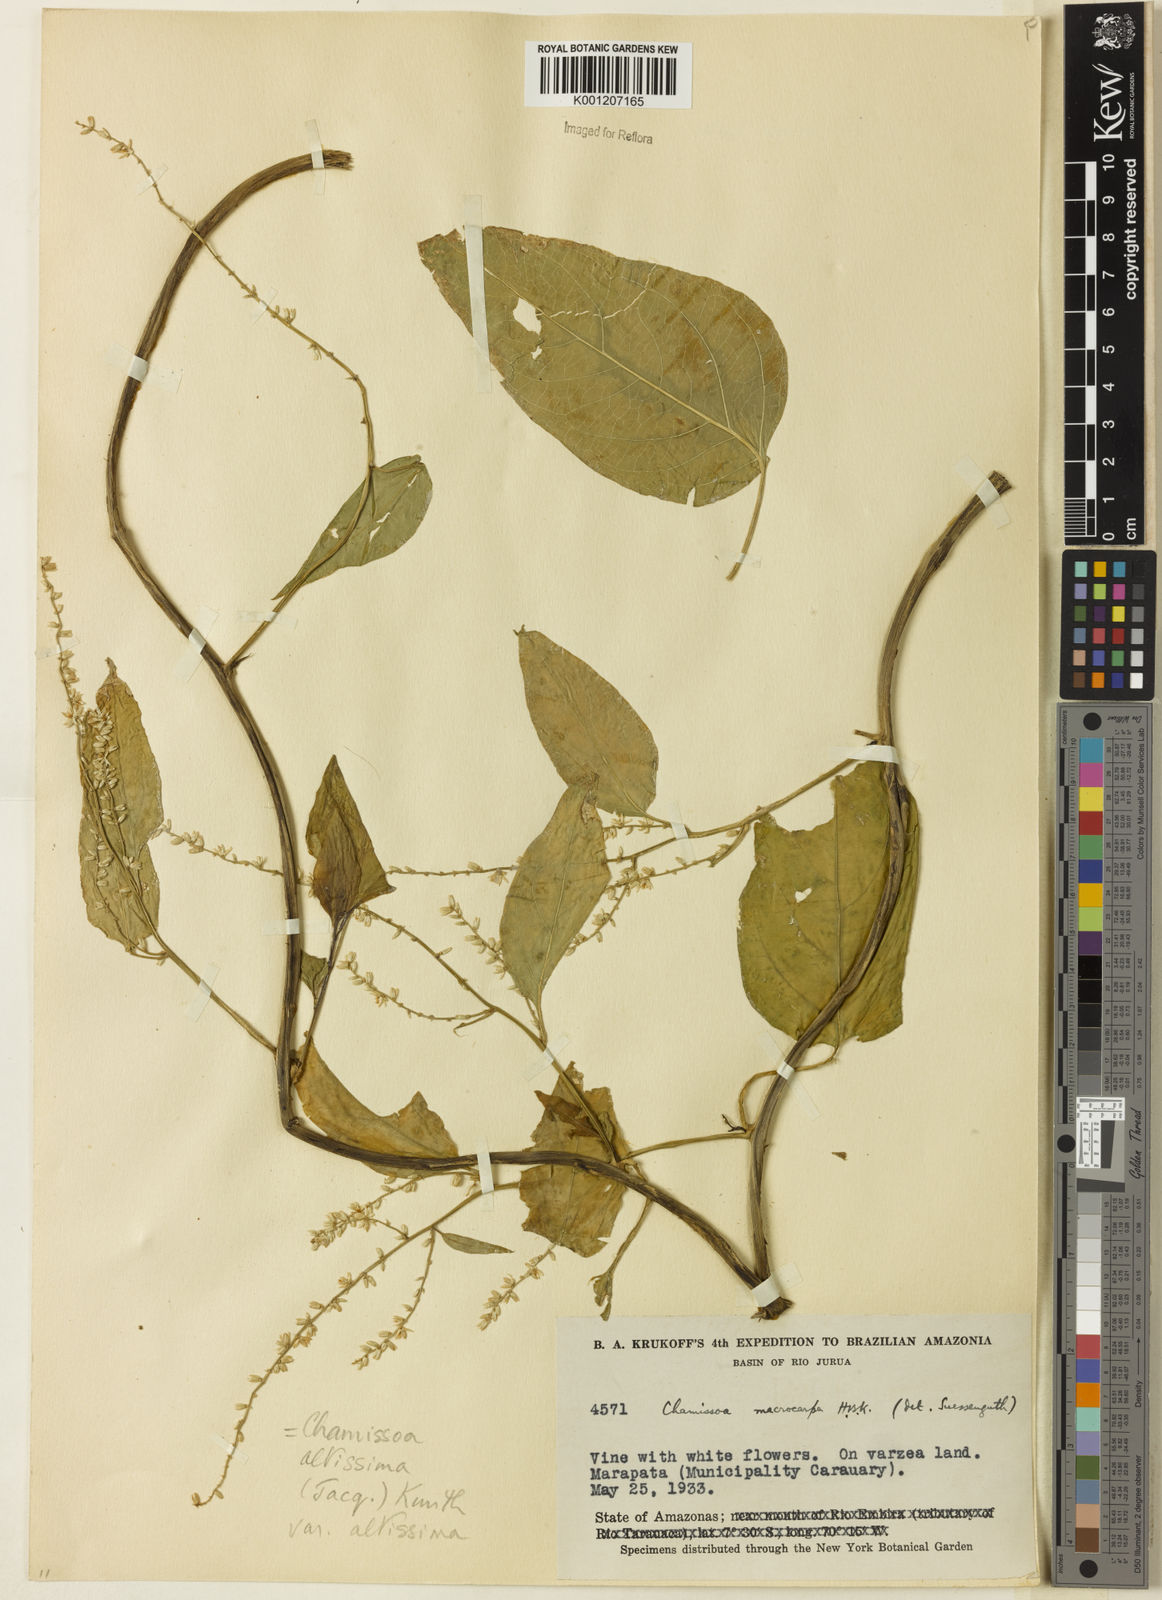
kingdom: Plantae
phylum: Tracheophyta
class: Magnoliopsida
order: Caryophyllales
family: Amaranthaceae
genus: Chamissoa
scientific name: Chamissoa altissima
